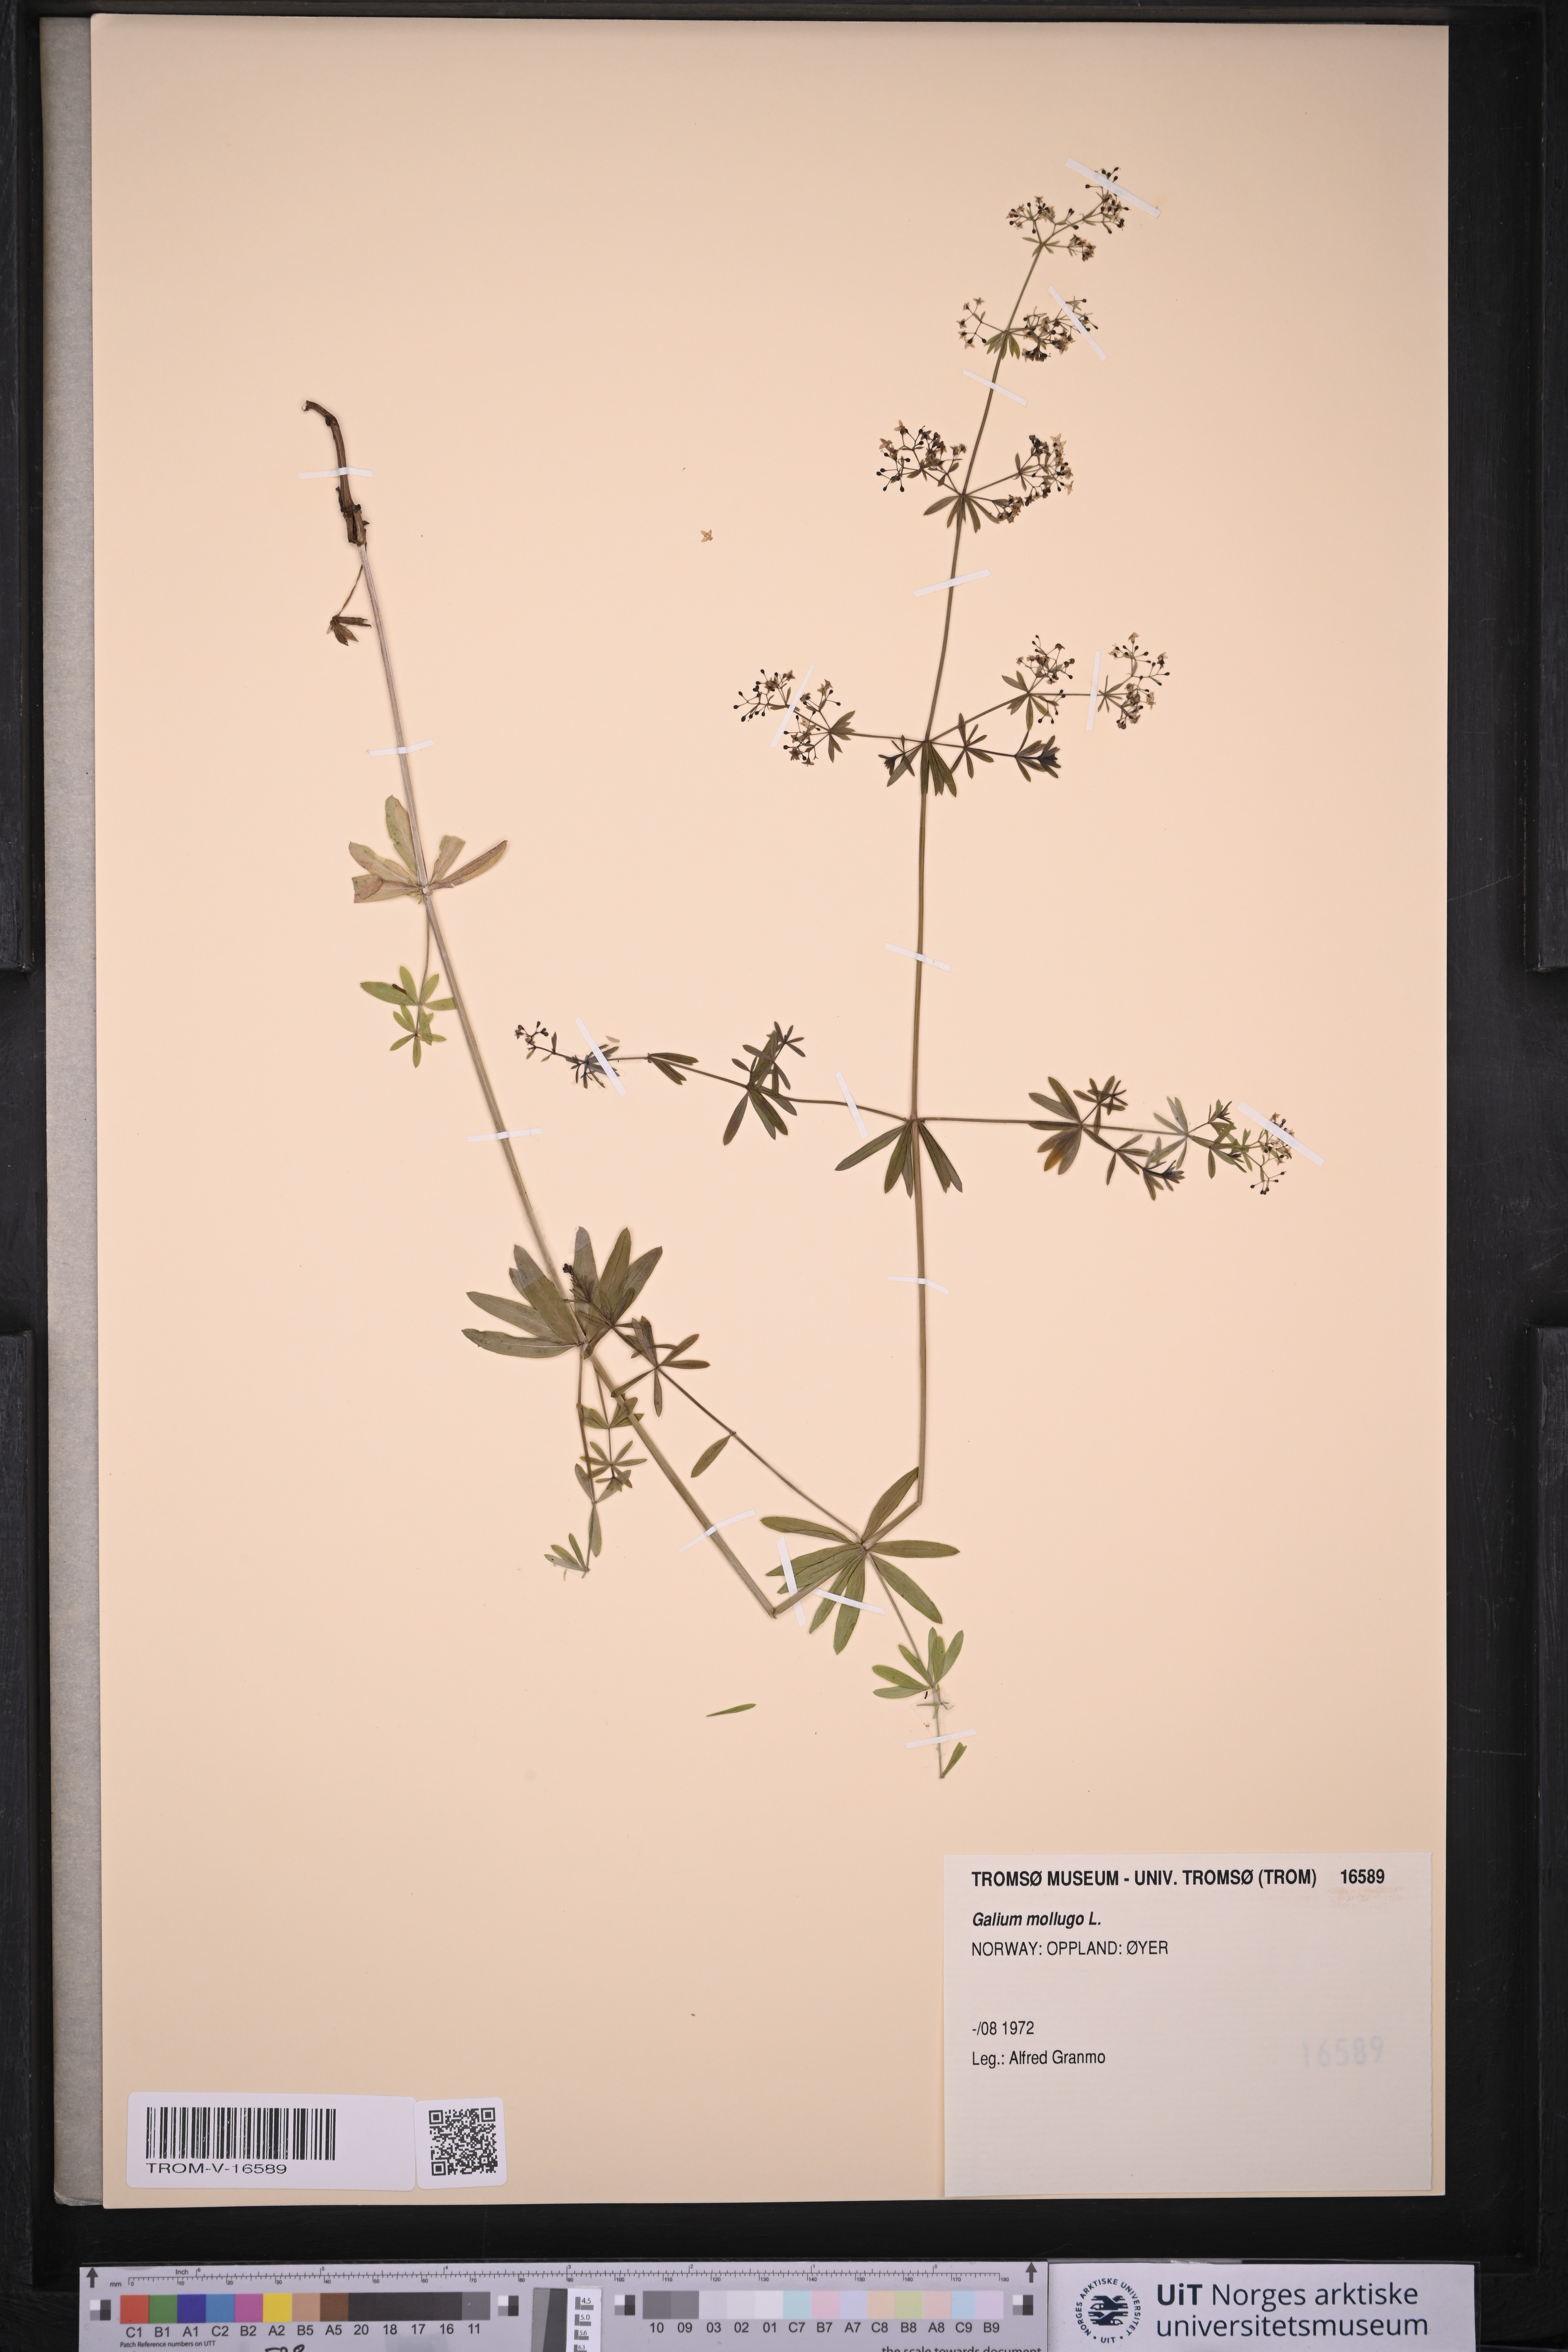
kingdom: Plantae
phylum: Tracheophyta
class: Magnoliopsida
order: Gentianales
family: Rubiaceae
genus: Galium
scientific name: Galium mollugo
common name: Hedge bedstraw
